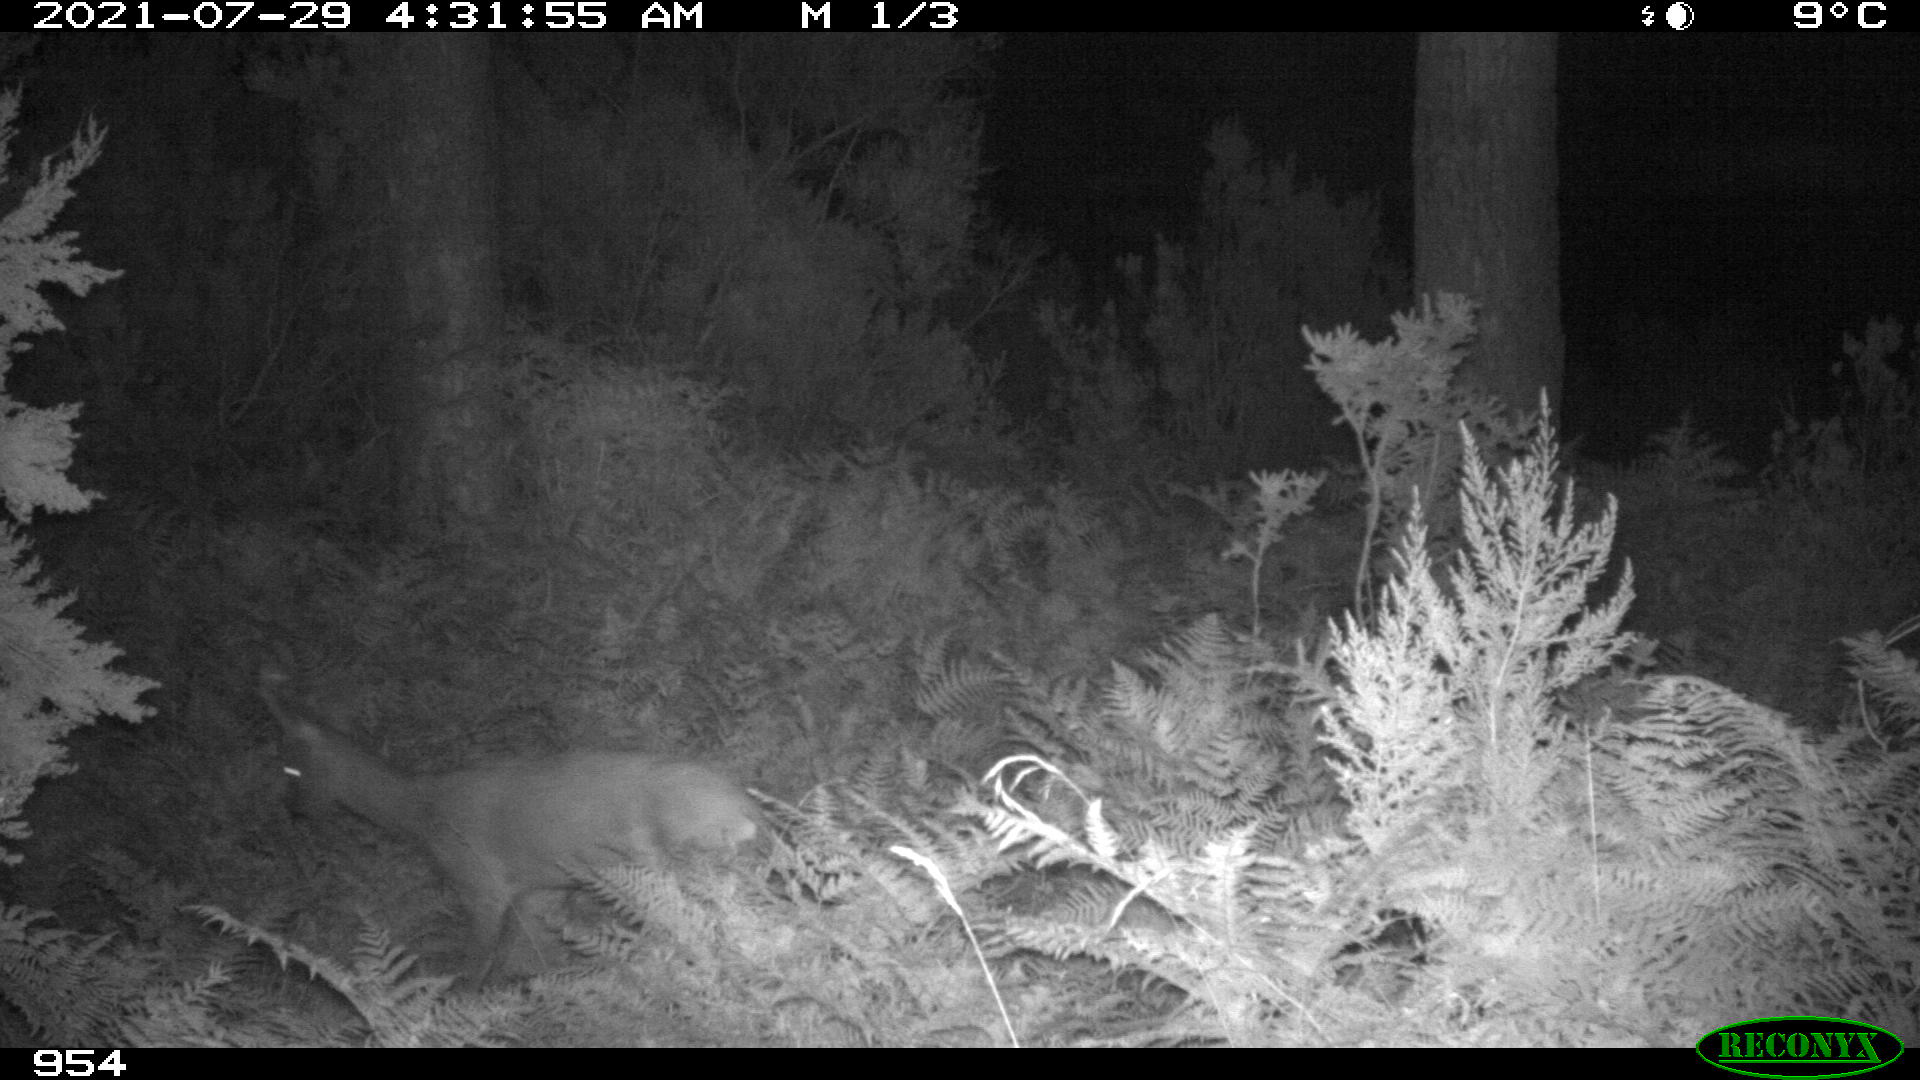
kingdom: Animalia
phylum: Chordata
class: Mammalia
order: Artiodactyla
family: Cervidae
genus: Capreolus
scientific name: Capreolus capreolus
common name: Western roe deer
